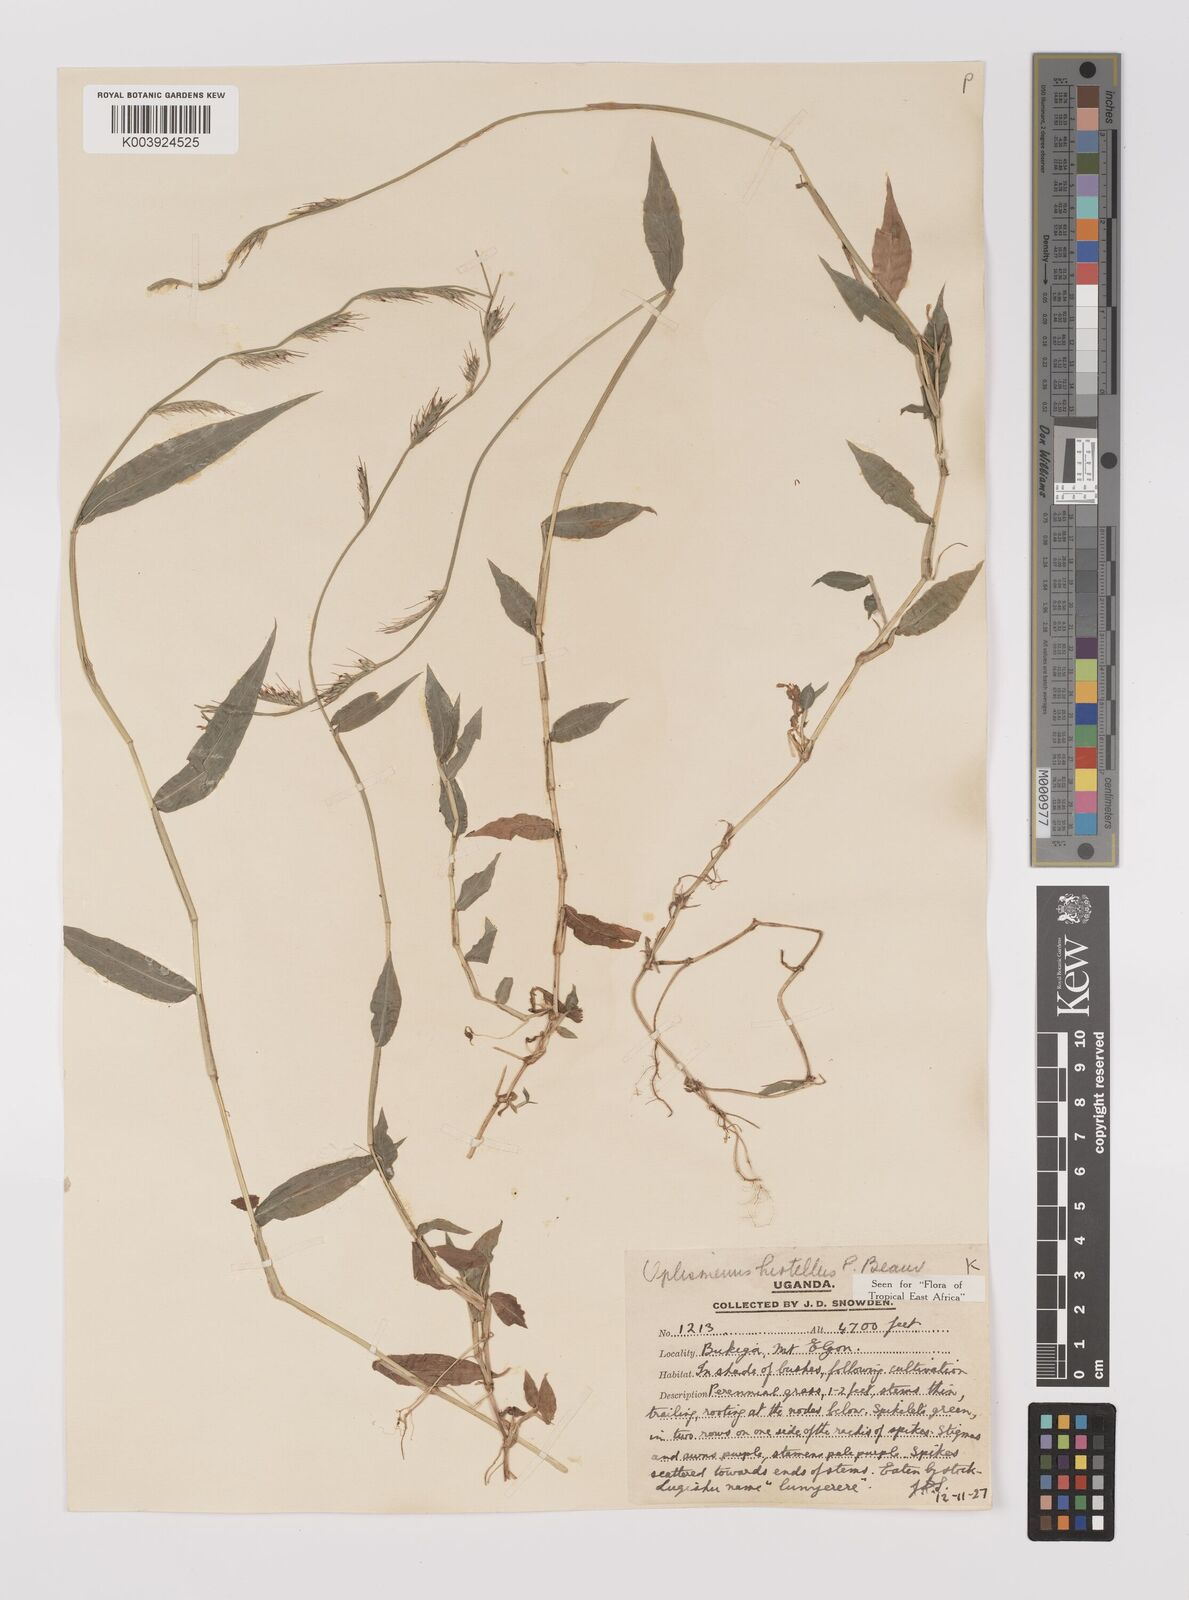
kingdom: Plantae
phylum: Tracheophyta
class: Liliopsida
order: Poales
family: Poaceae
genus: Oplismenus
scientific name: Oplismenus hirtellus
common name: Basketgrass
